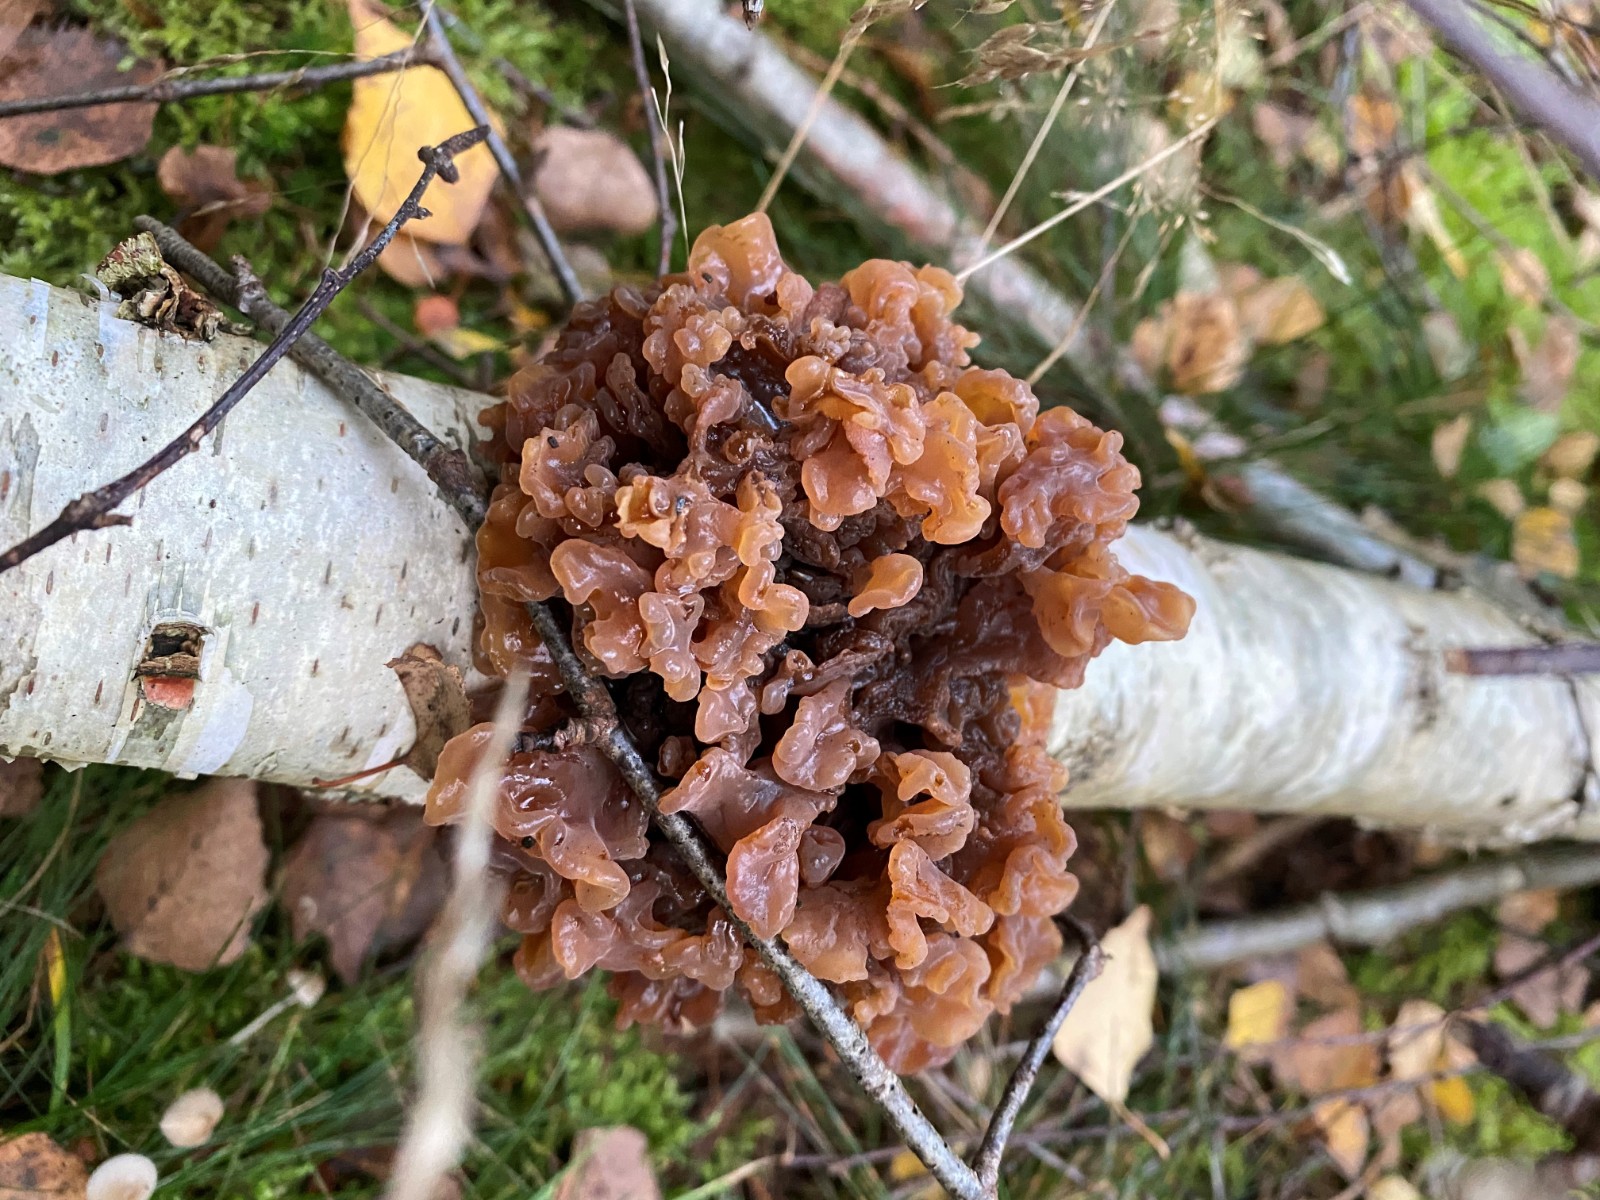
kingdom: Fungi
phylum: Basidiomycota
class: Tremellomycetes
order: Tremellales
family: Tremellaceae
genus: Phaeotremella
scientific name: Phaeotremella frondosa
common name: kæmpe-bævresvamp
